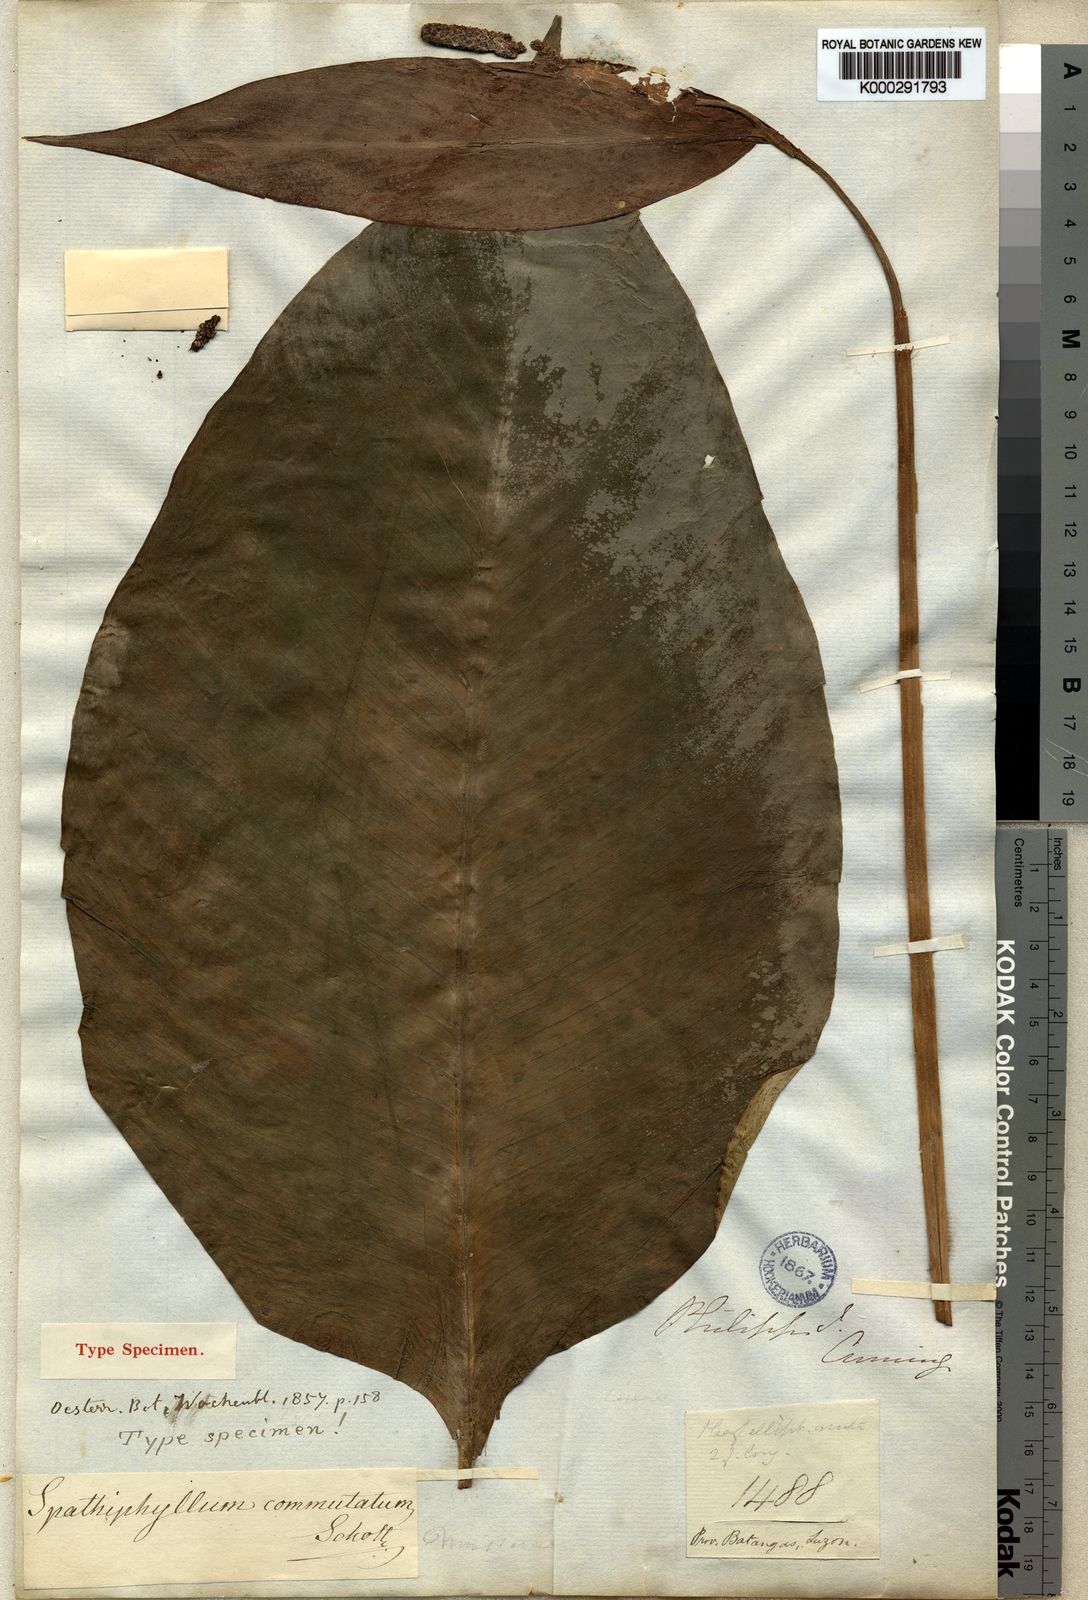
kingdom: Plantae
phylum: Tracheophyta
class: Liliopsida
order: Alismatales
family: Araceae
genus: Spathiphyllum
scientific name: Spathiphyllum commutatum
